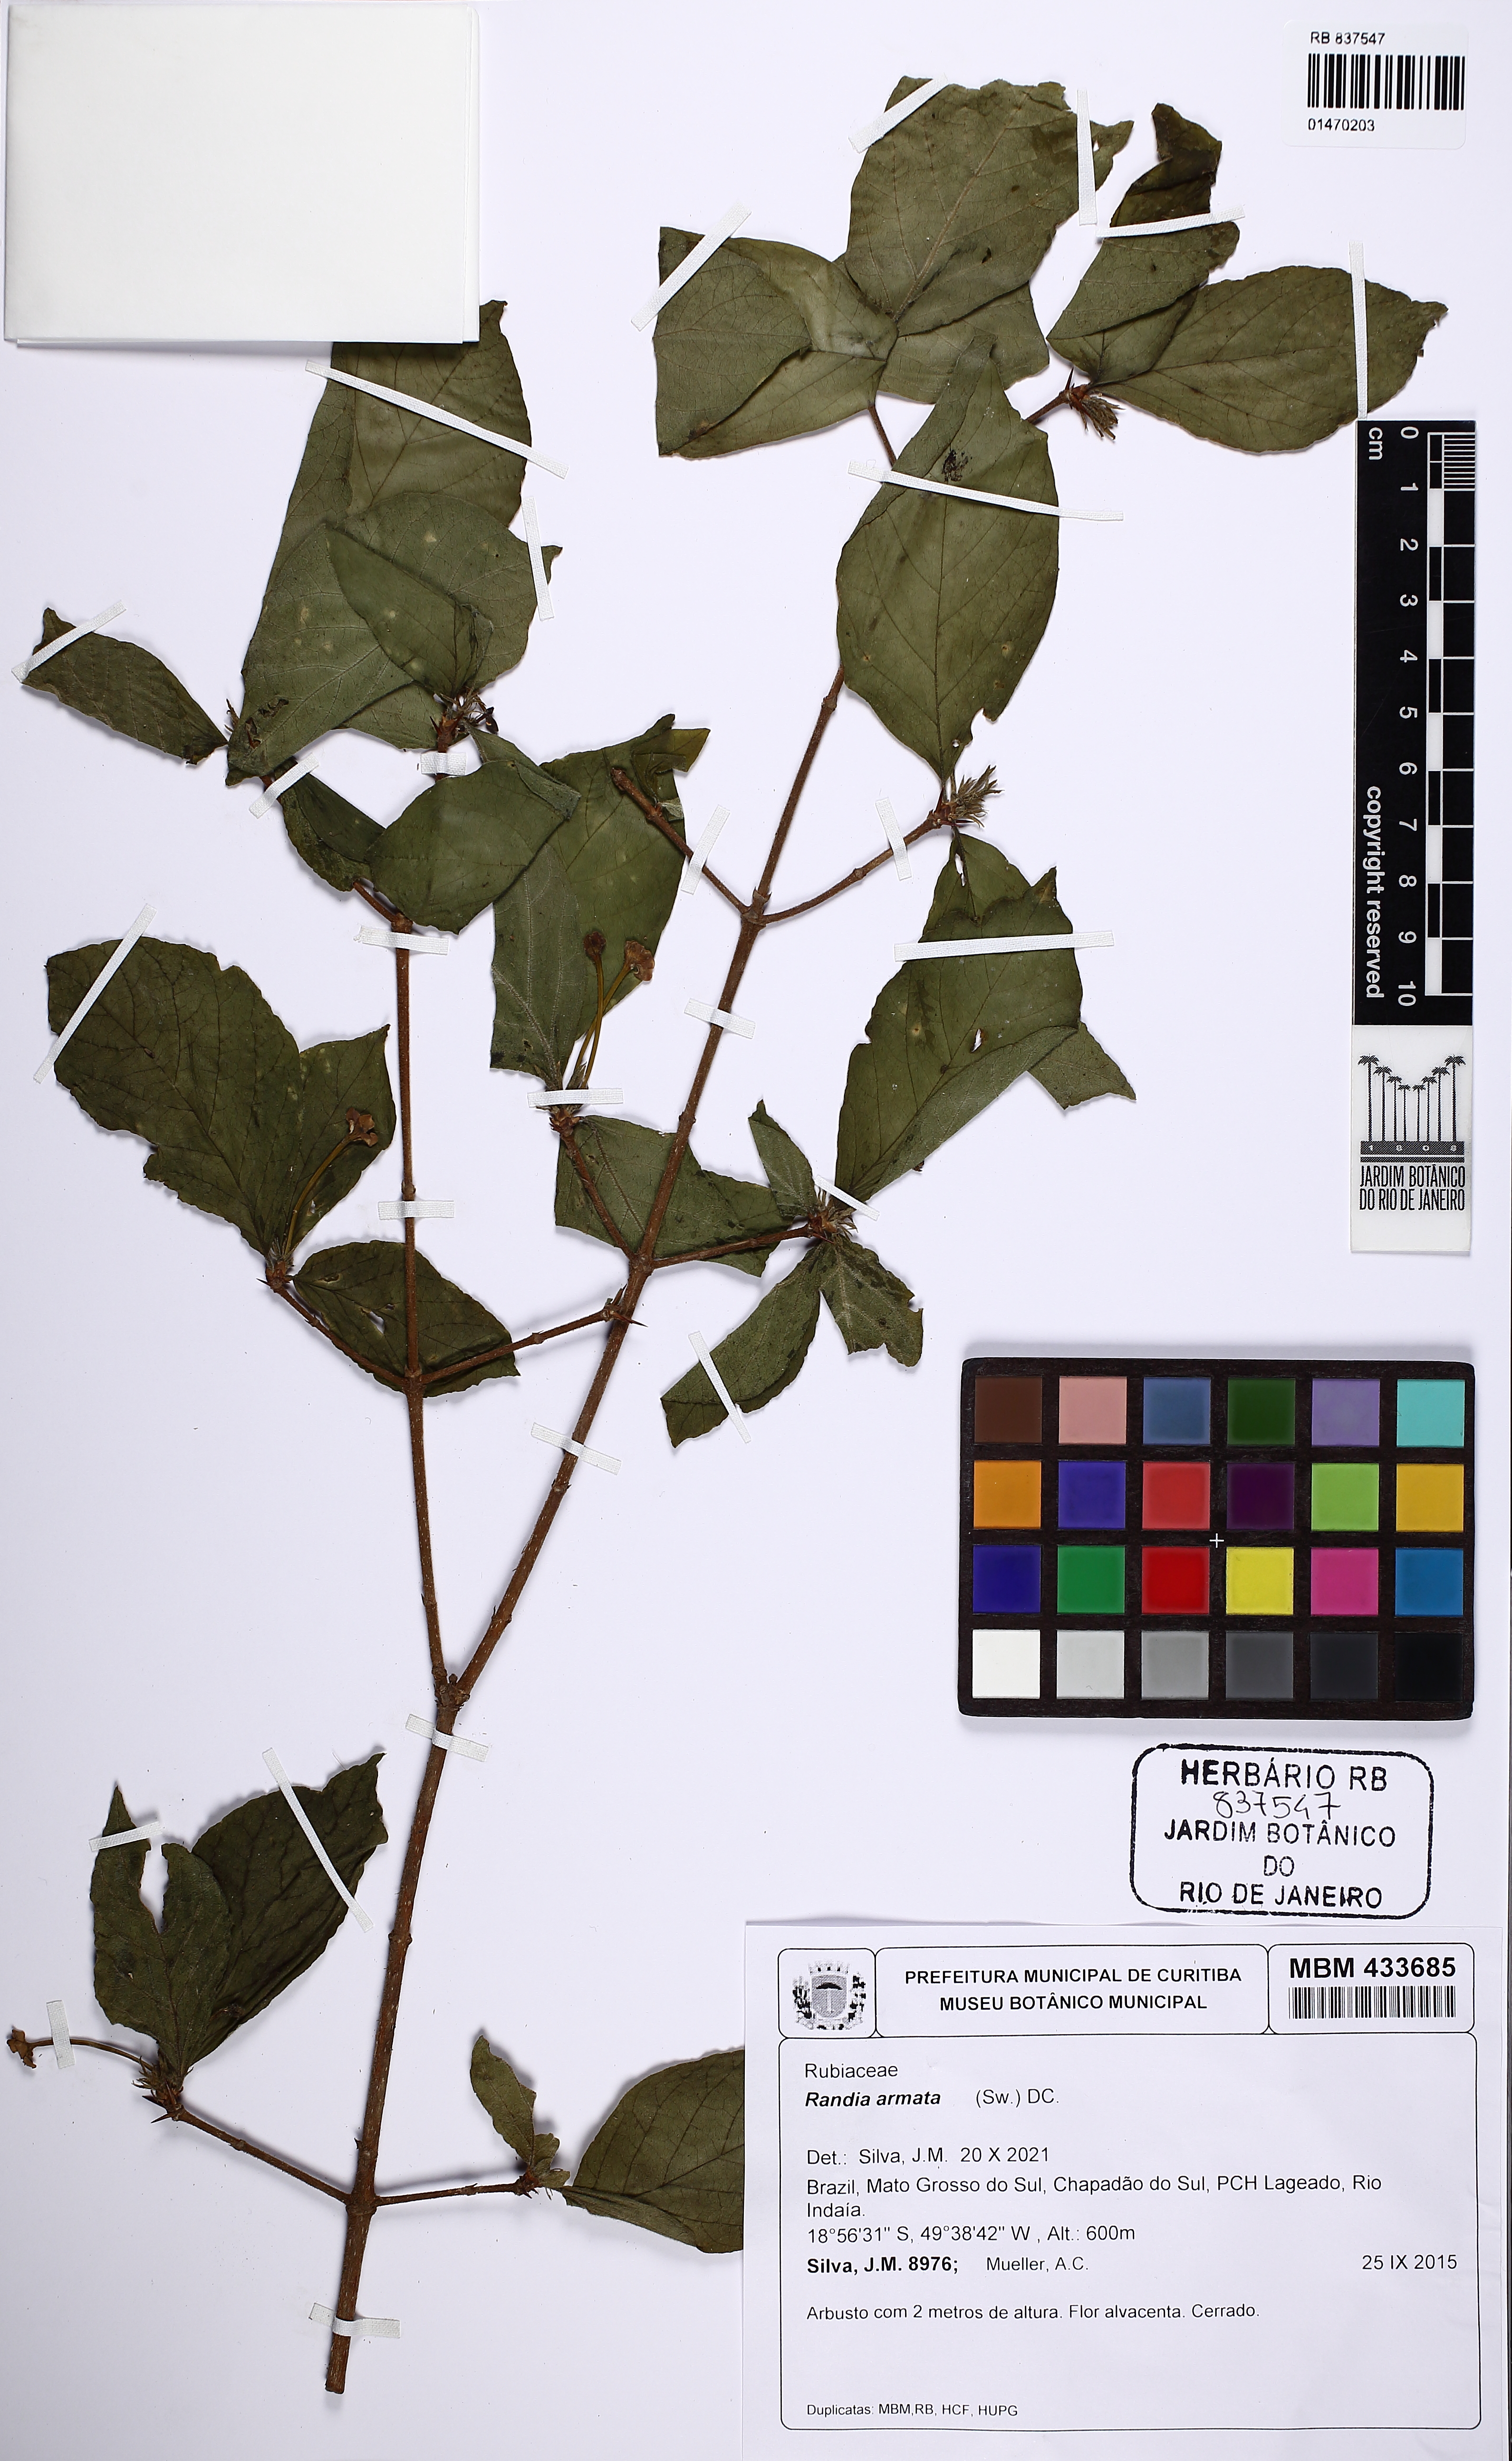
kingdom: Plantae
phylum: Tracheophyta
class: Magnoliopsida
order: Gentianales
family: Rubiaceae
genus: Randia
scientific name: Randia armata
